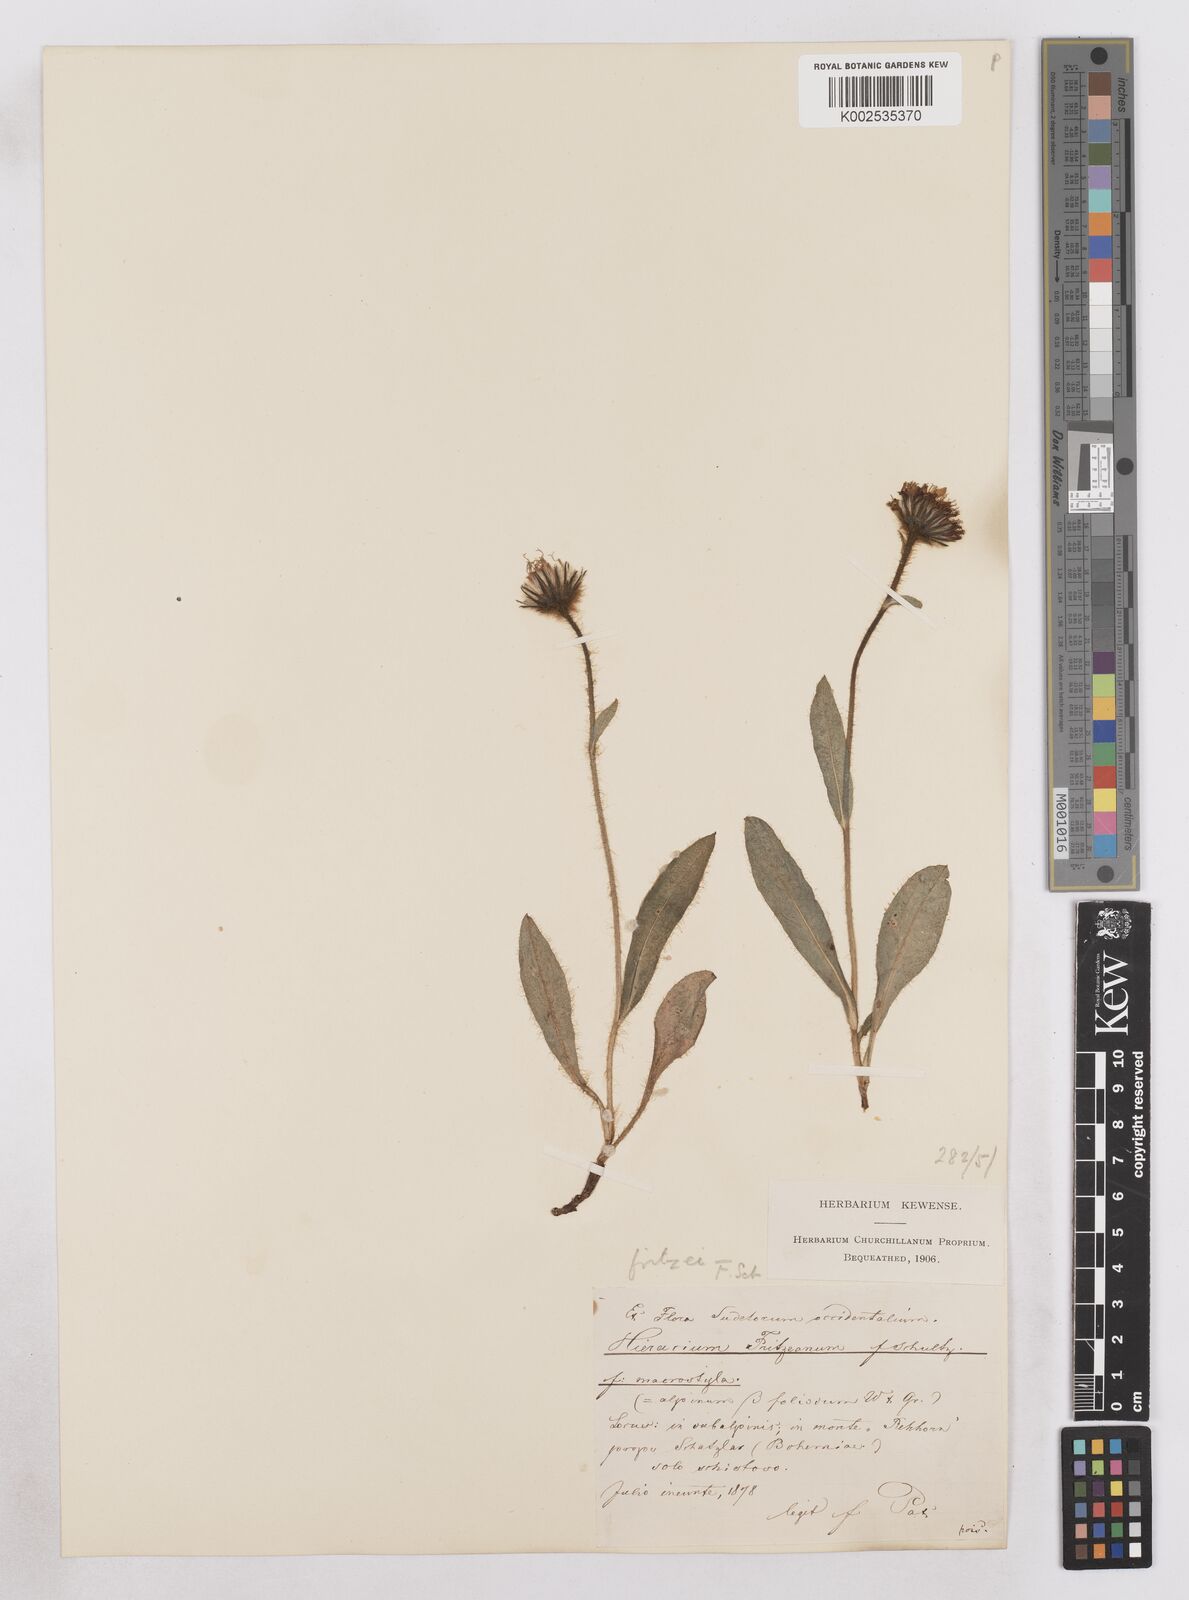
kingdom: Plantae
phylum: Tracheophyta
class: Magnoliopsida
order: Asterales
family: Asteraceae
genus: Hieracium
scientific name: Hieracium fritzei
